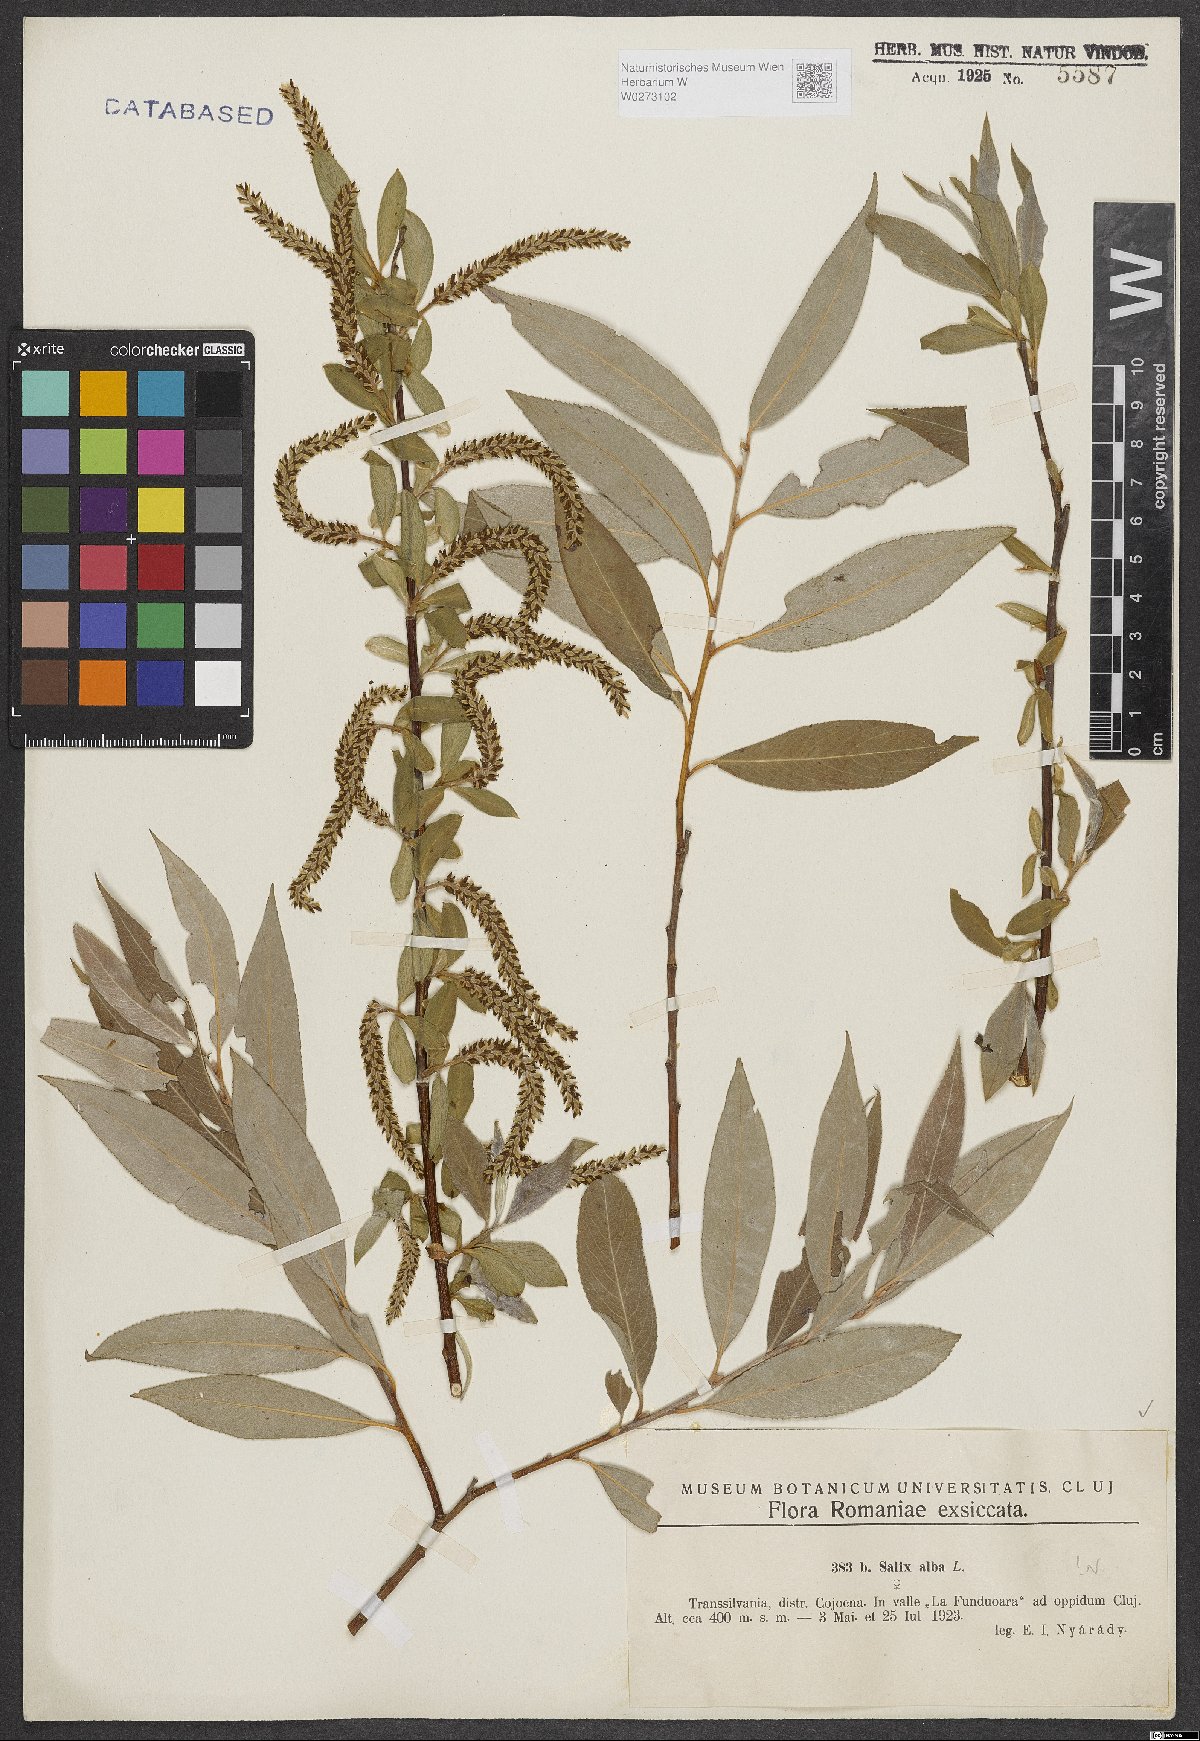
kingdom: Plantae
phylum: Tracheophyta
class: Magnoliopsida
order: Malpighiales
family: Salicaceae
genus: Salix
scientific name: Salix alba
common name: White willow
